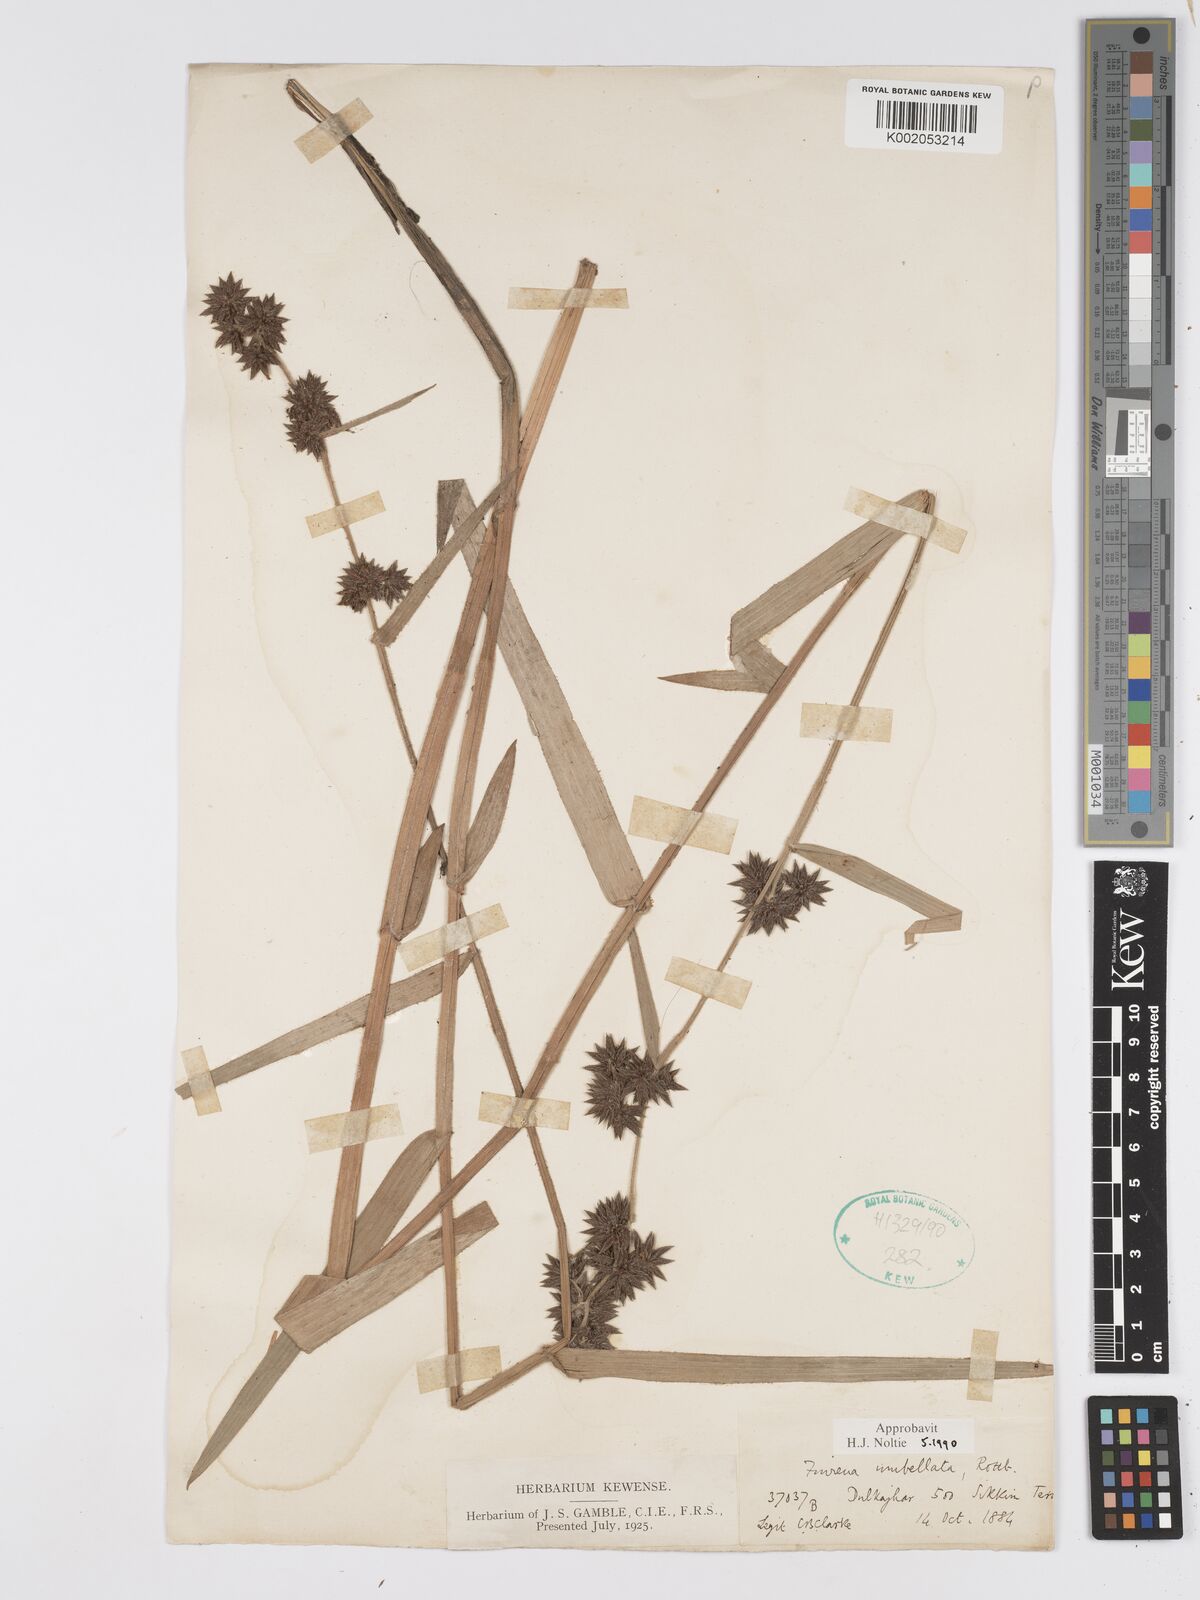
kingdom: Plantae
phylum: Tracheophyta
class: Liliopsida
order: Poales
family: Cyperaceae
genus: Fuirena
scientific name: Fuirena umbellata
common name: Yefen
